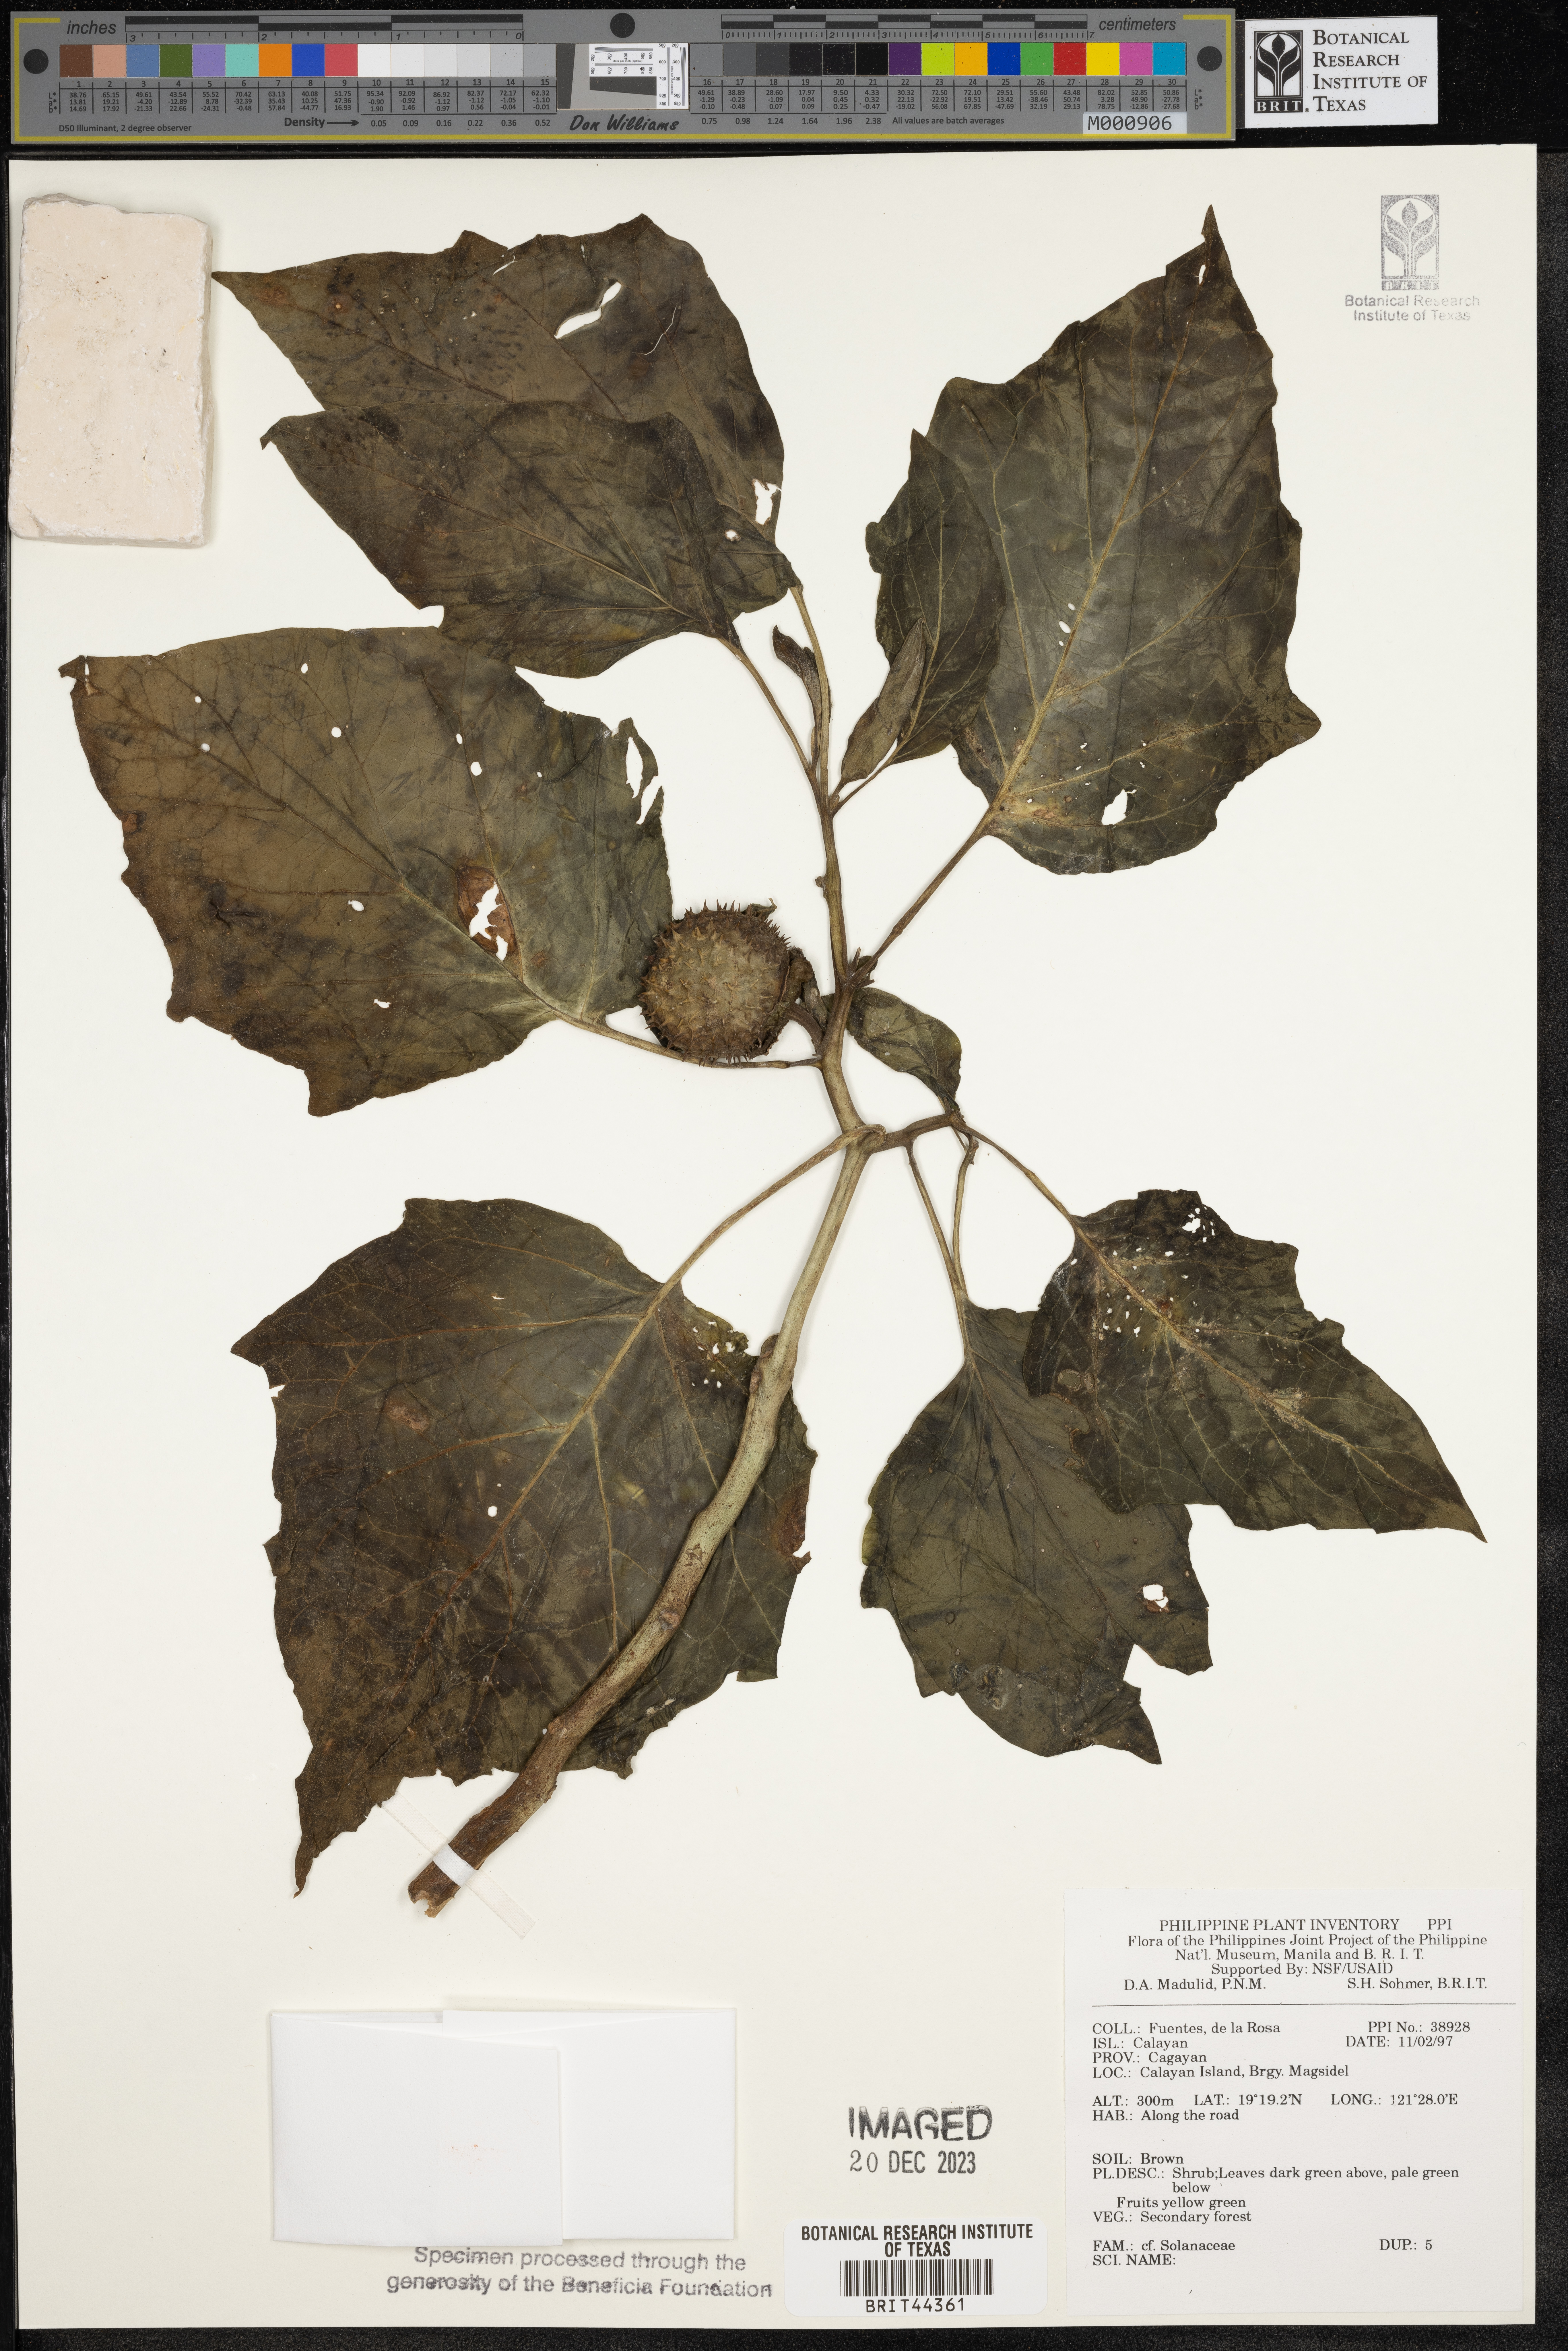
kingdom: Plantae
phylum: Tracheophyta
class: Magnoliopsida
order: Solanales
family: Solanaceae
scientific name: Solanaceae
